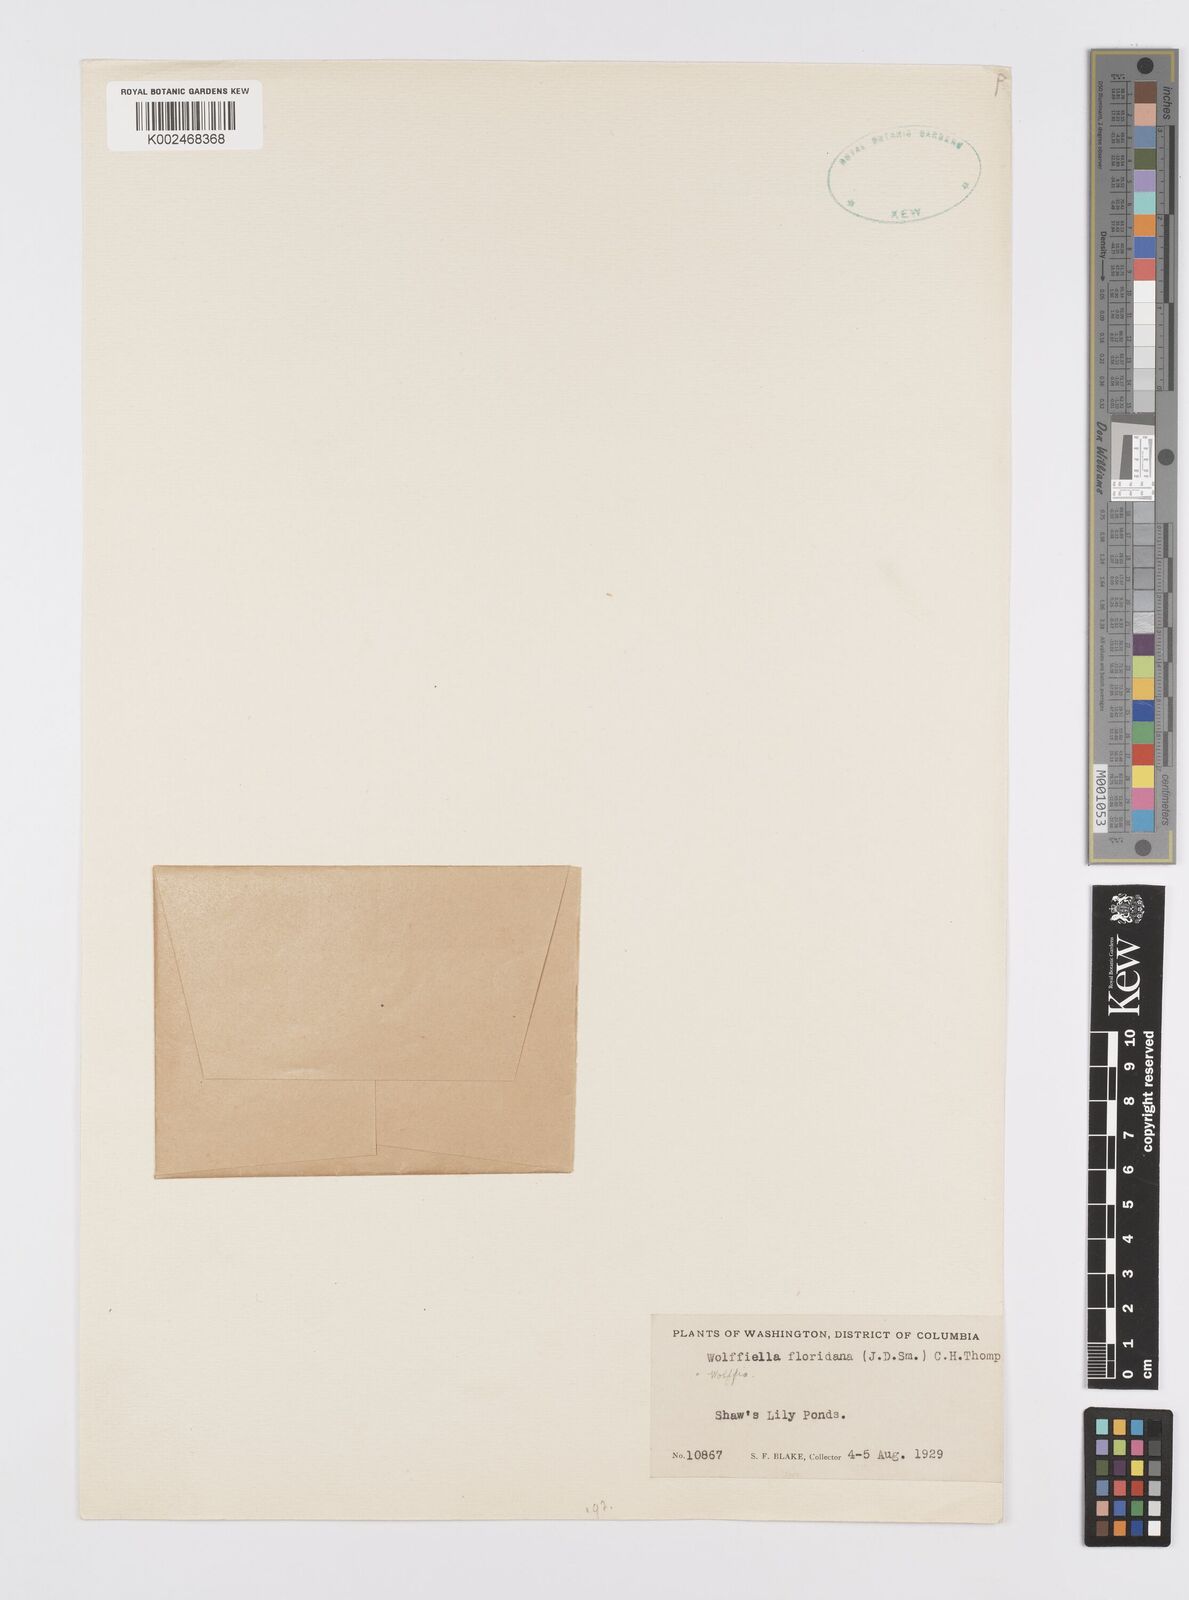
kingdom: Plantae
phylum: Tracheophyta
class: Liliopsida
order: Alismatales
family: Araceae
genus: Wolffiella
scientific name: Wolffiella gladiata
